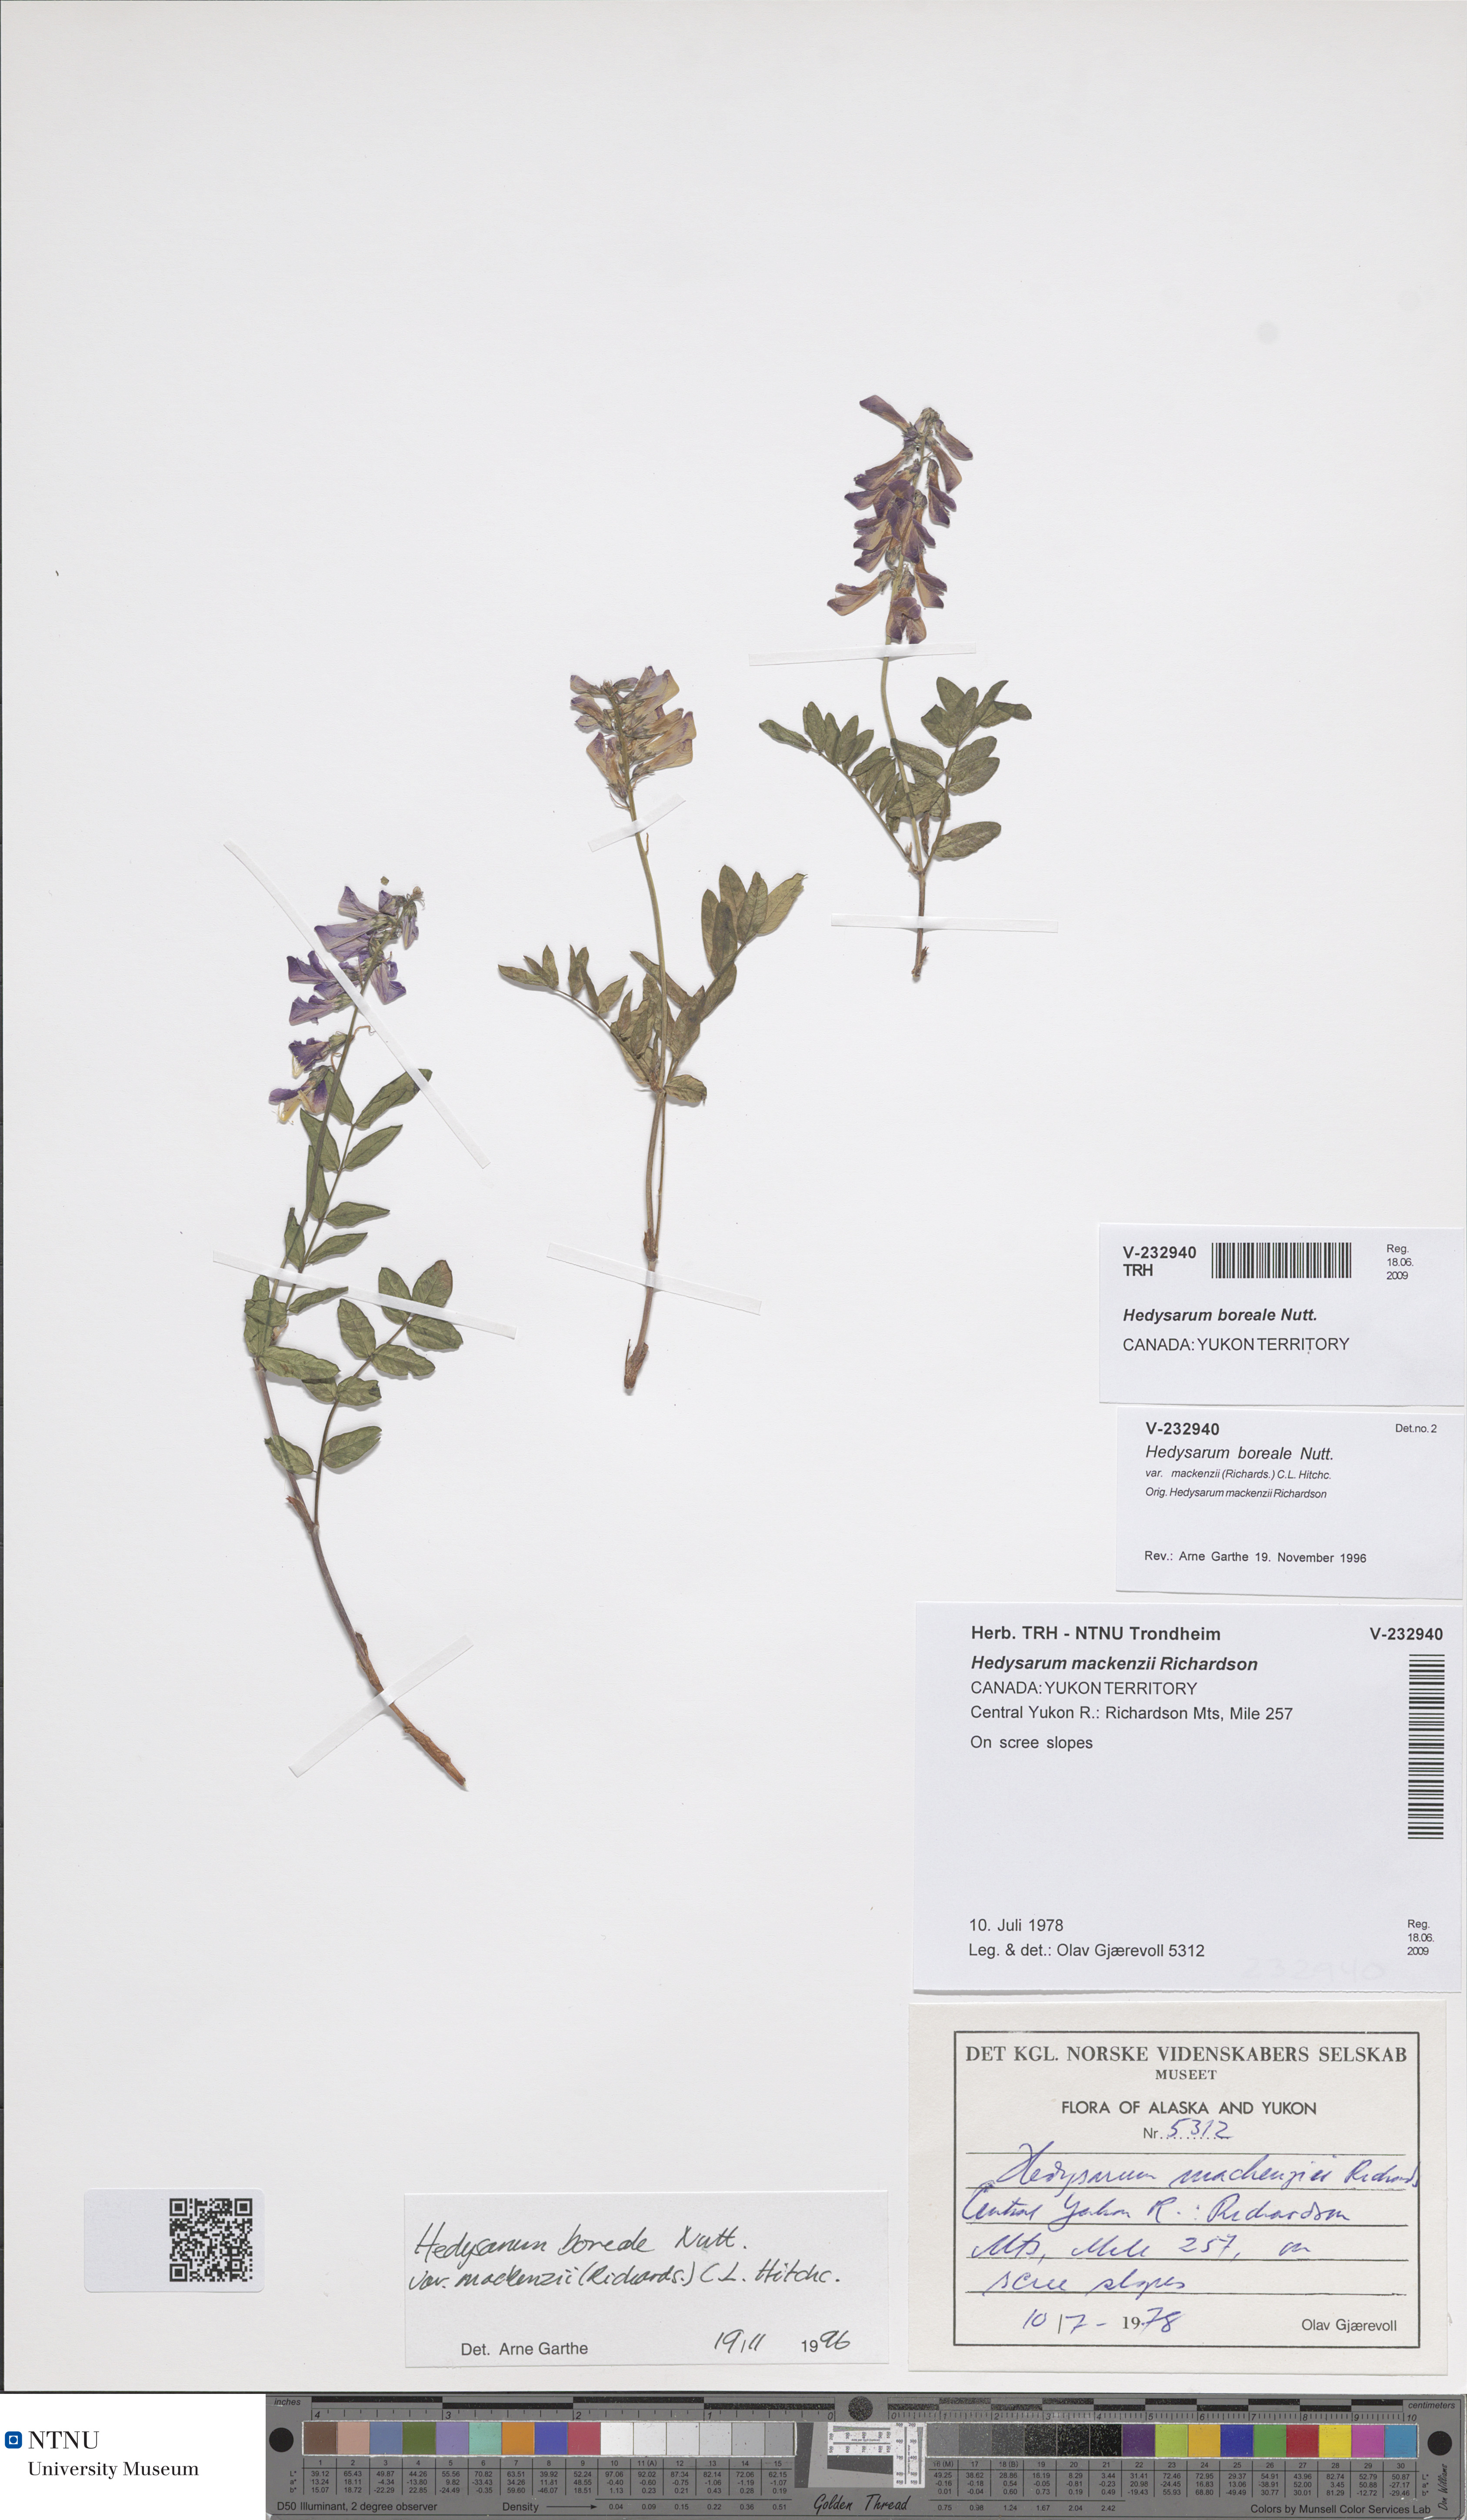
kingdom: Plantae
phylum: Tracheophyta
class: Magnoliopsida
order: Fabales
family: Fabaceae
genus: Hedysarum
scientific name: Hedysarum boreale
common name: Northern sweet-vetch
